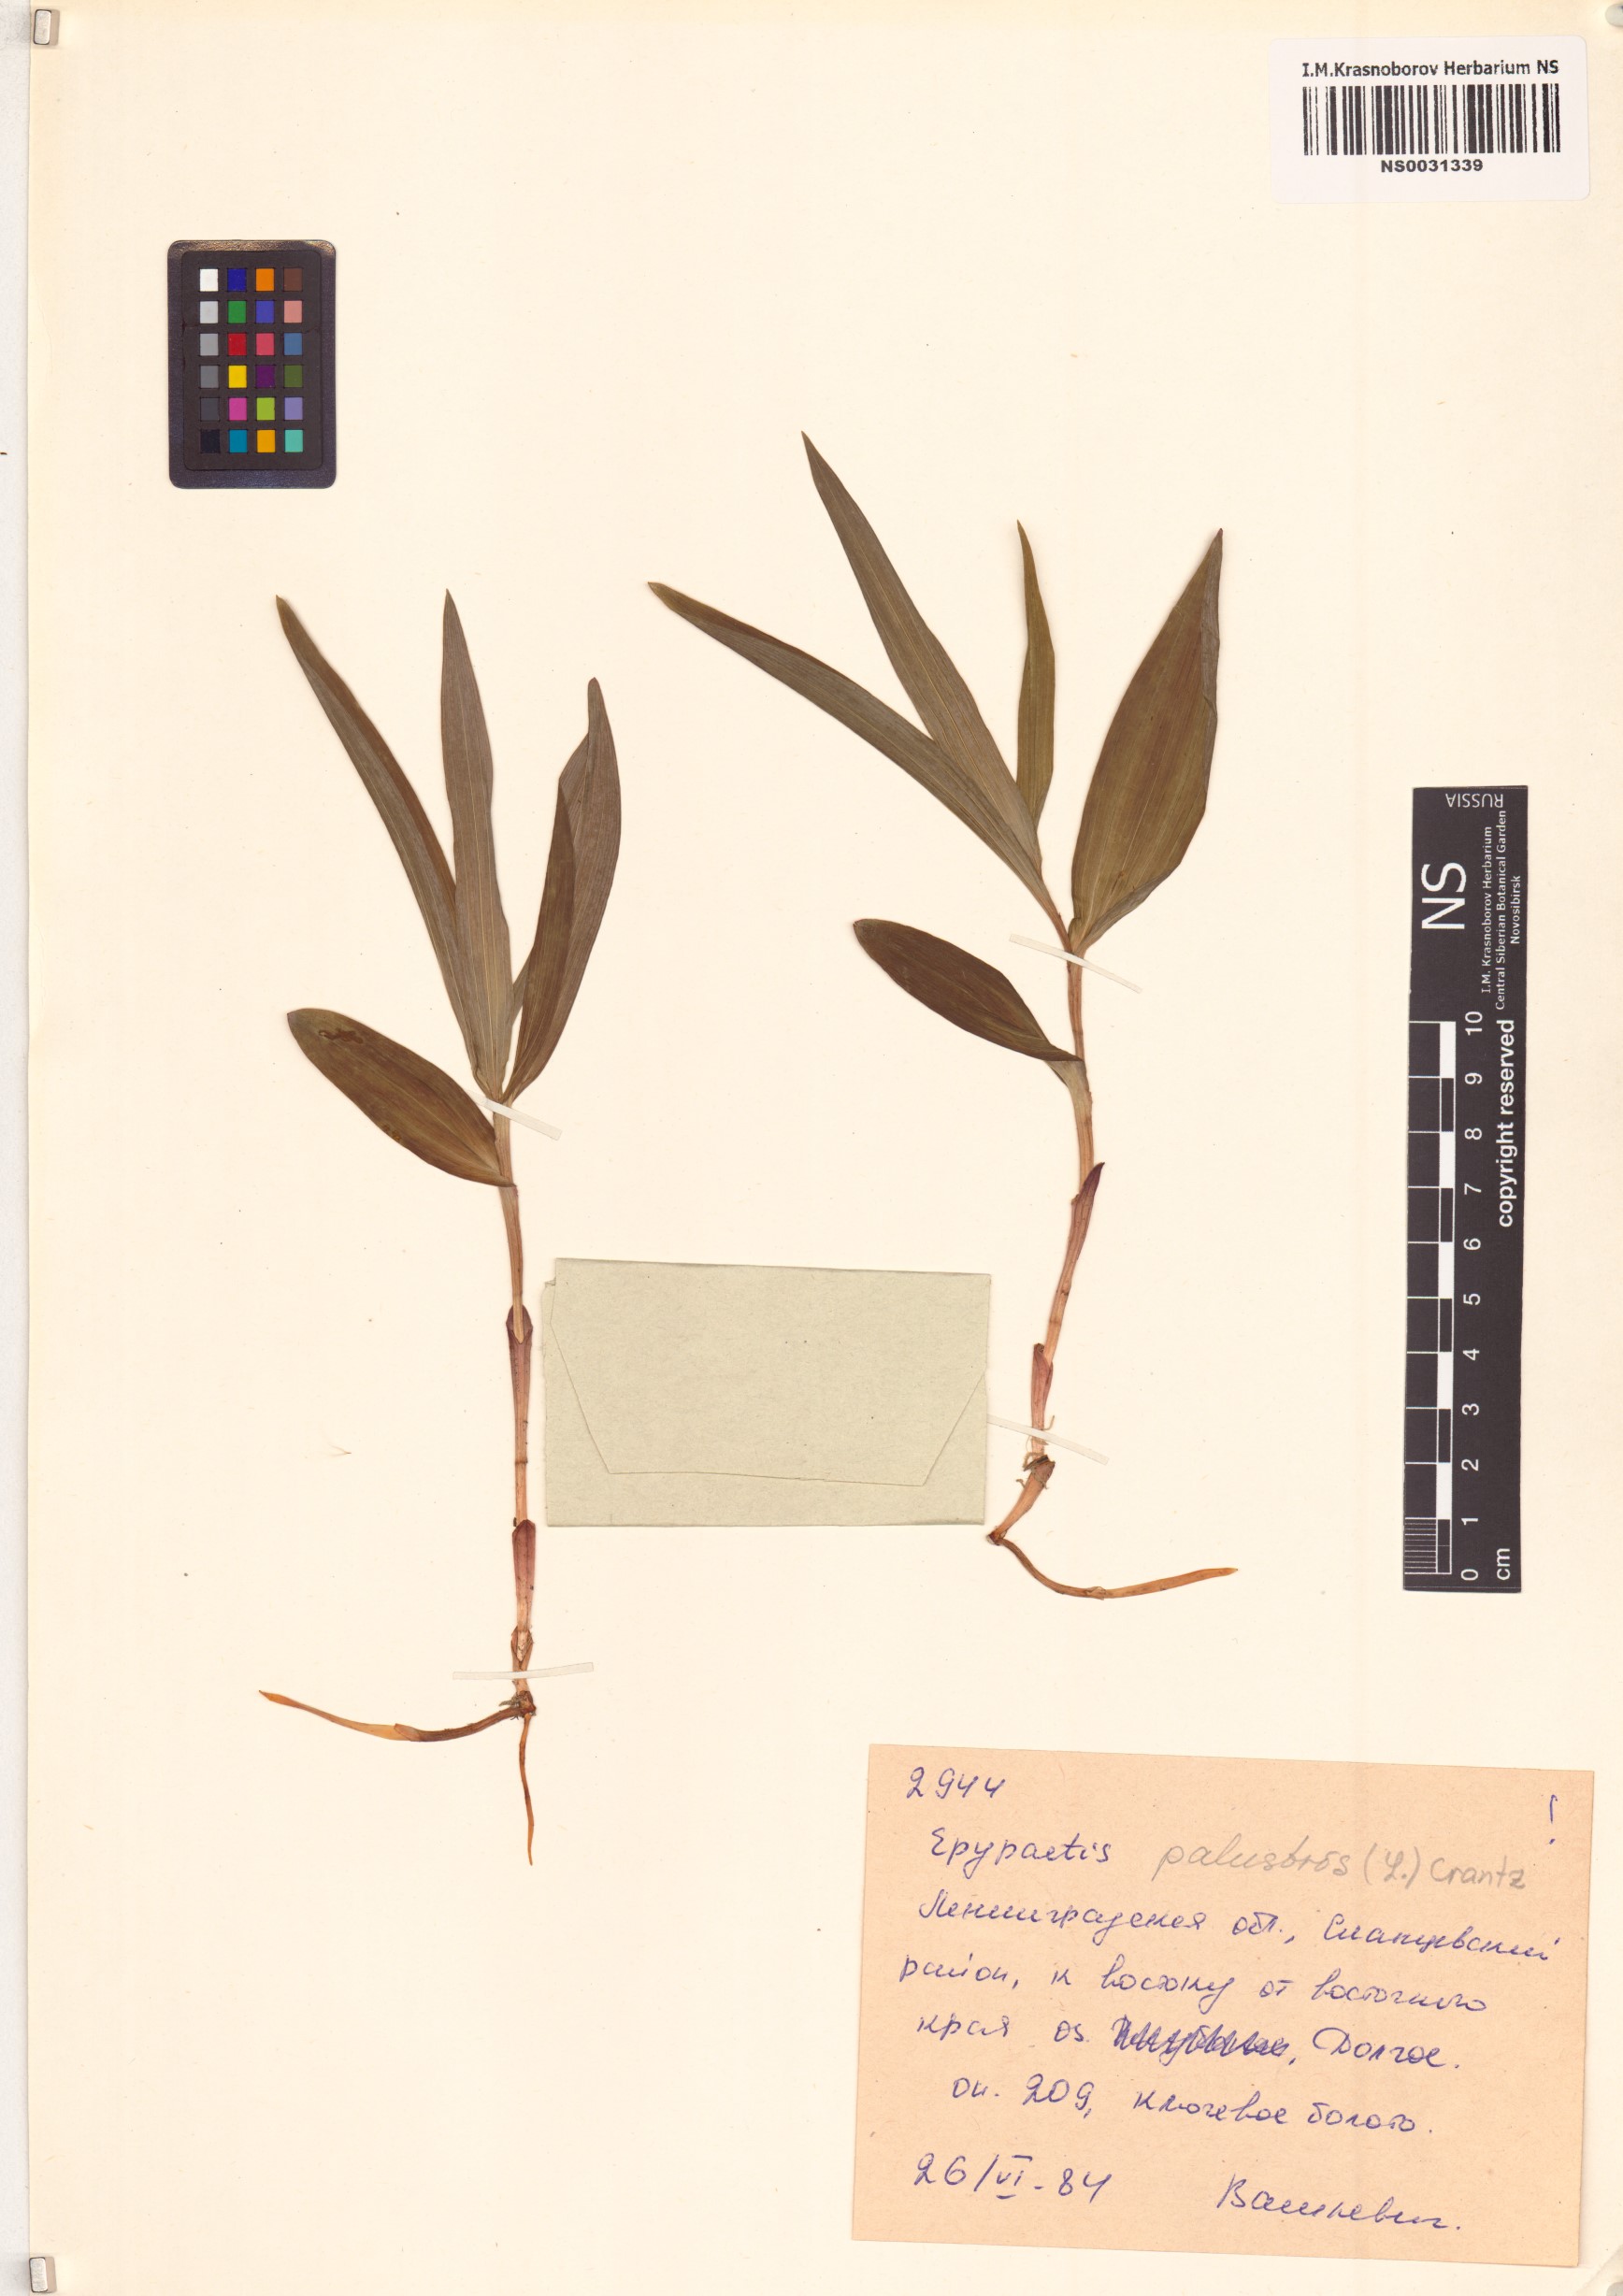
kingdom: Plantae
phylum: Tracheophyta
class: Liliopsida
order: Asparagales
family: Orchidaceae
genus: Epipactis
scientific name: Epipactis palustris
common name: Marsh helleborine
